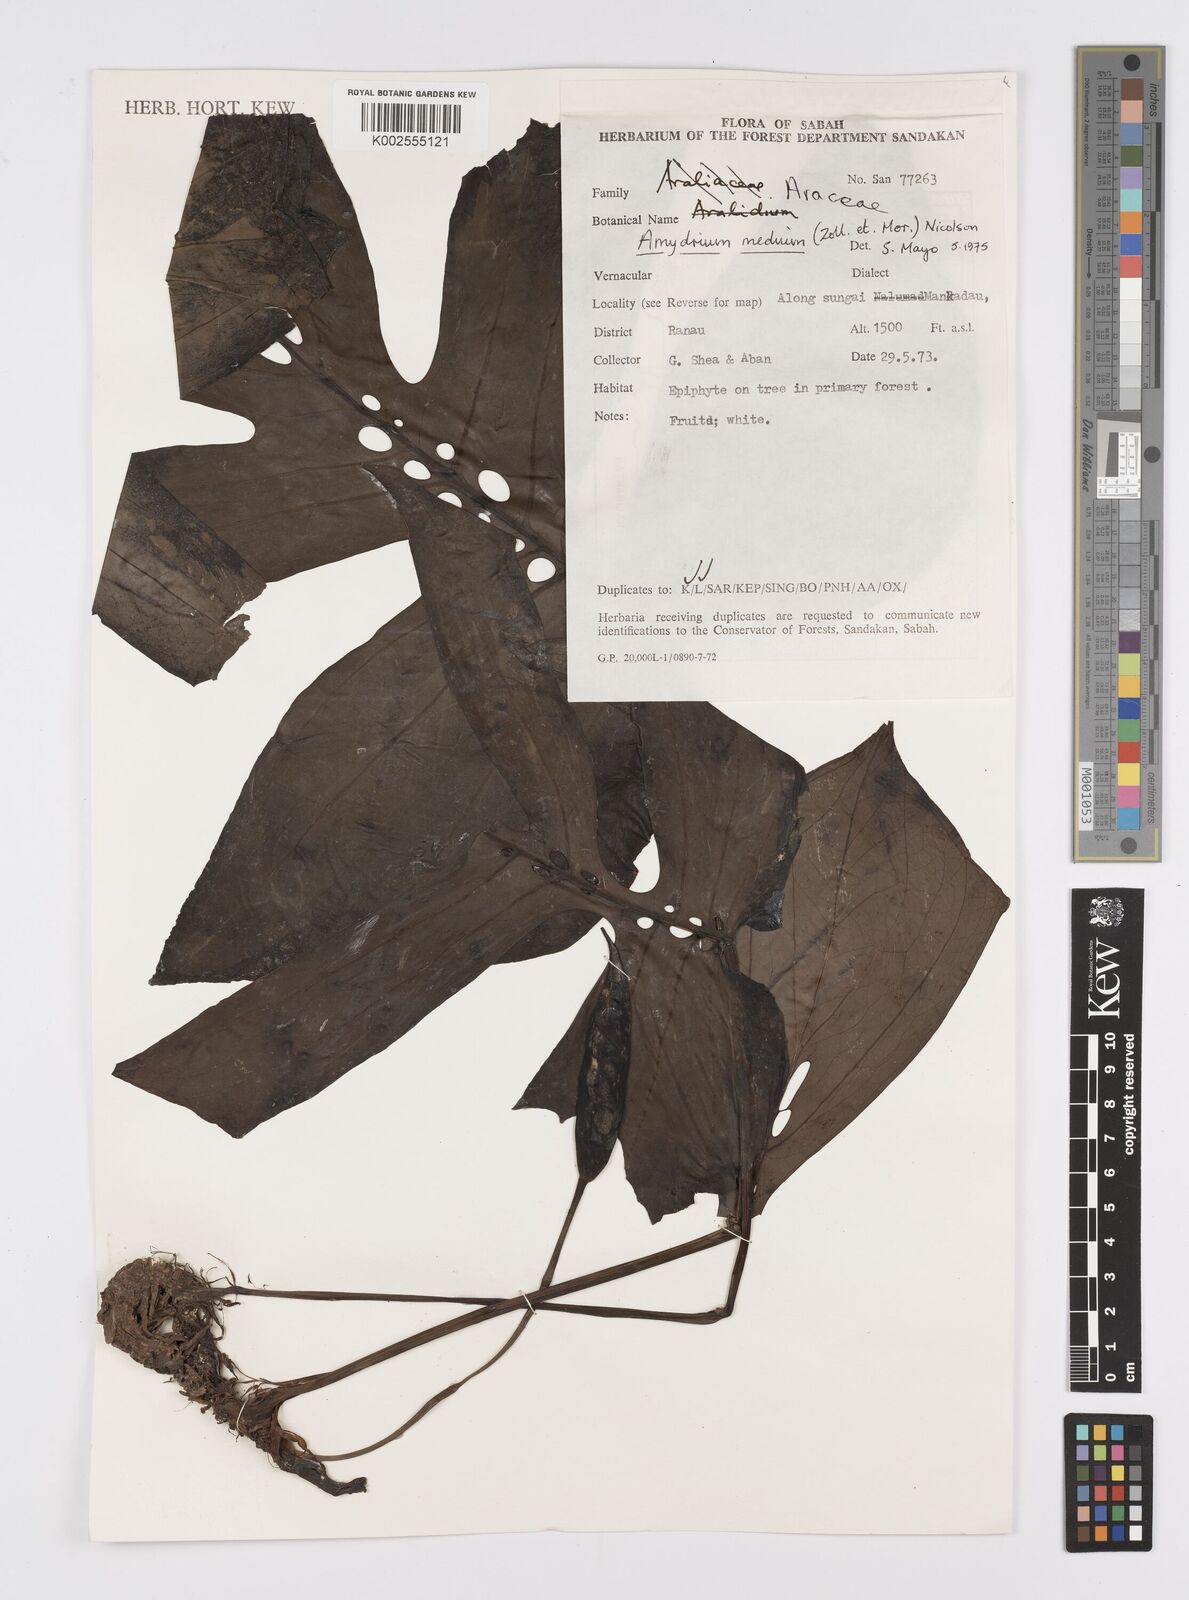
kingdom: Plantae
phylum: Tracheophyta
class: Liliopsida
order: Alismatales
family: Araceae
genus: Amydrium
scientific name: Amydrium medium
